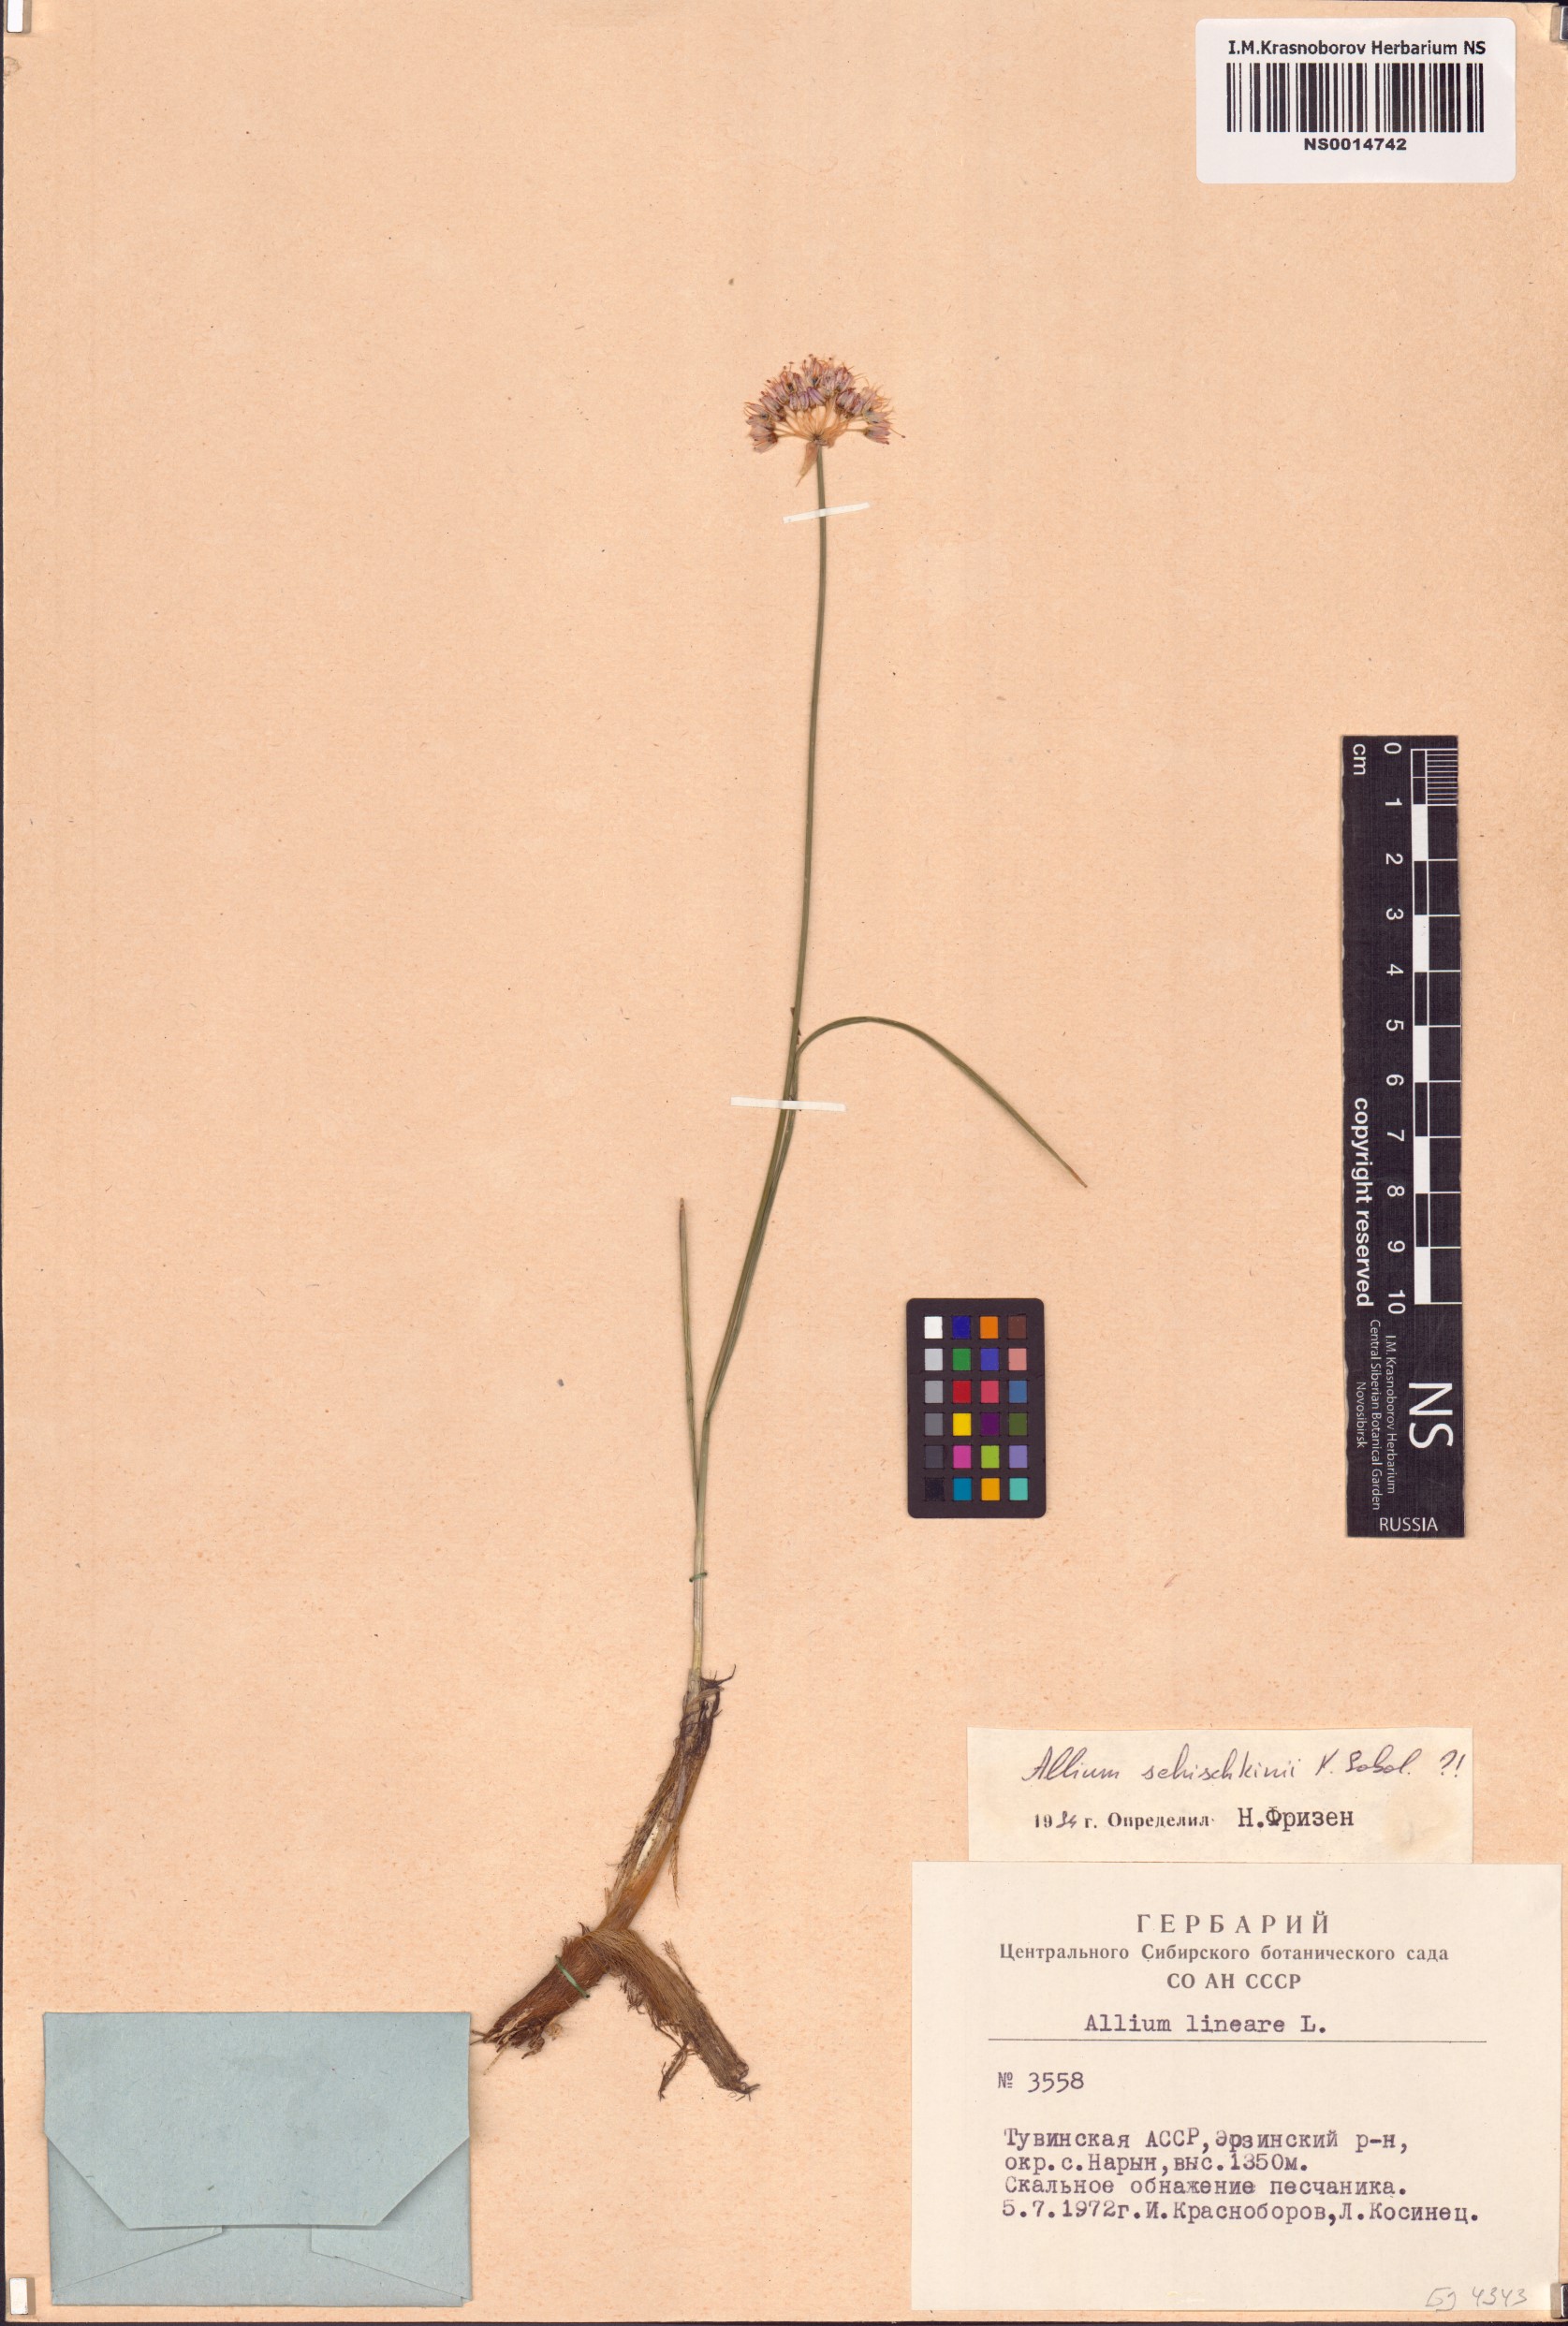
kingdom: Plantae
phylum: Tracheophyta
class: Liliopsida
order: Asparagales
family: Amaryllidaceae
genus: Allium
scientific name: Allium schischkinii
